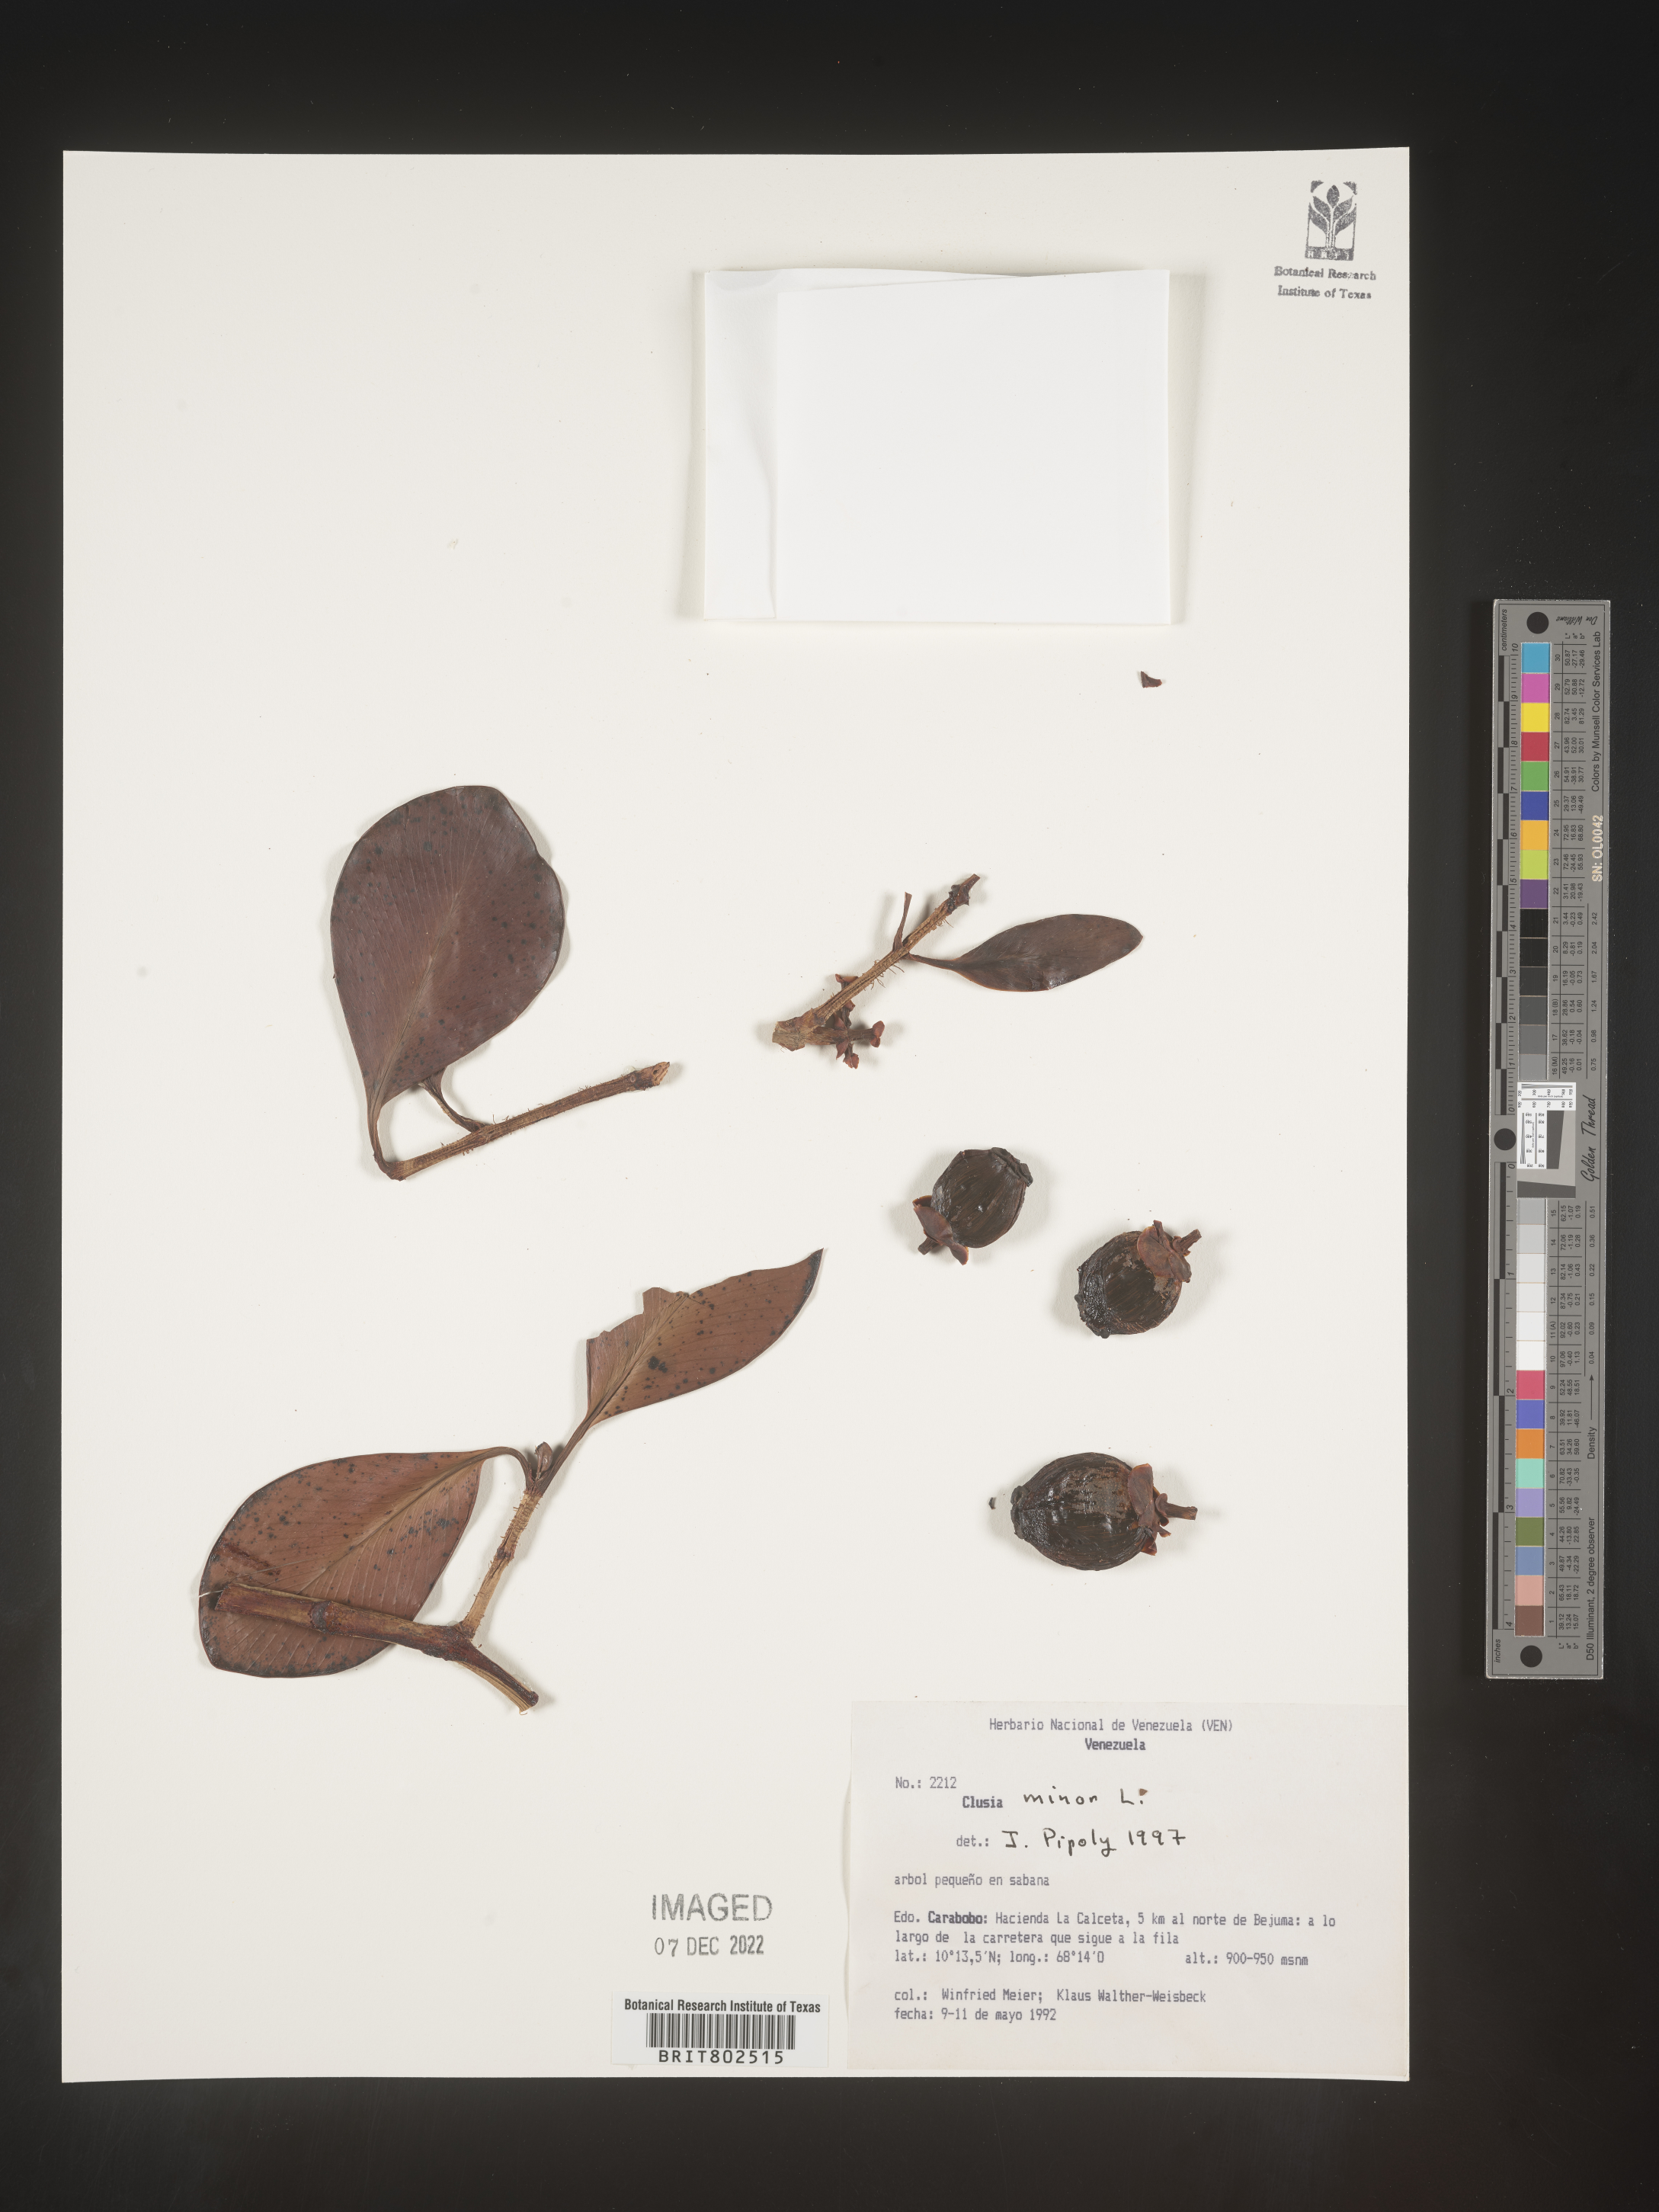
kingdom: Plantae
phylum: Tracheophyta
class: Magnoliopsida
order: Malpighiales
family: Clusiaceae
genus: Clusia
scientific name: Clusia minor
